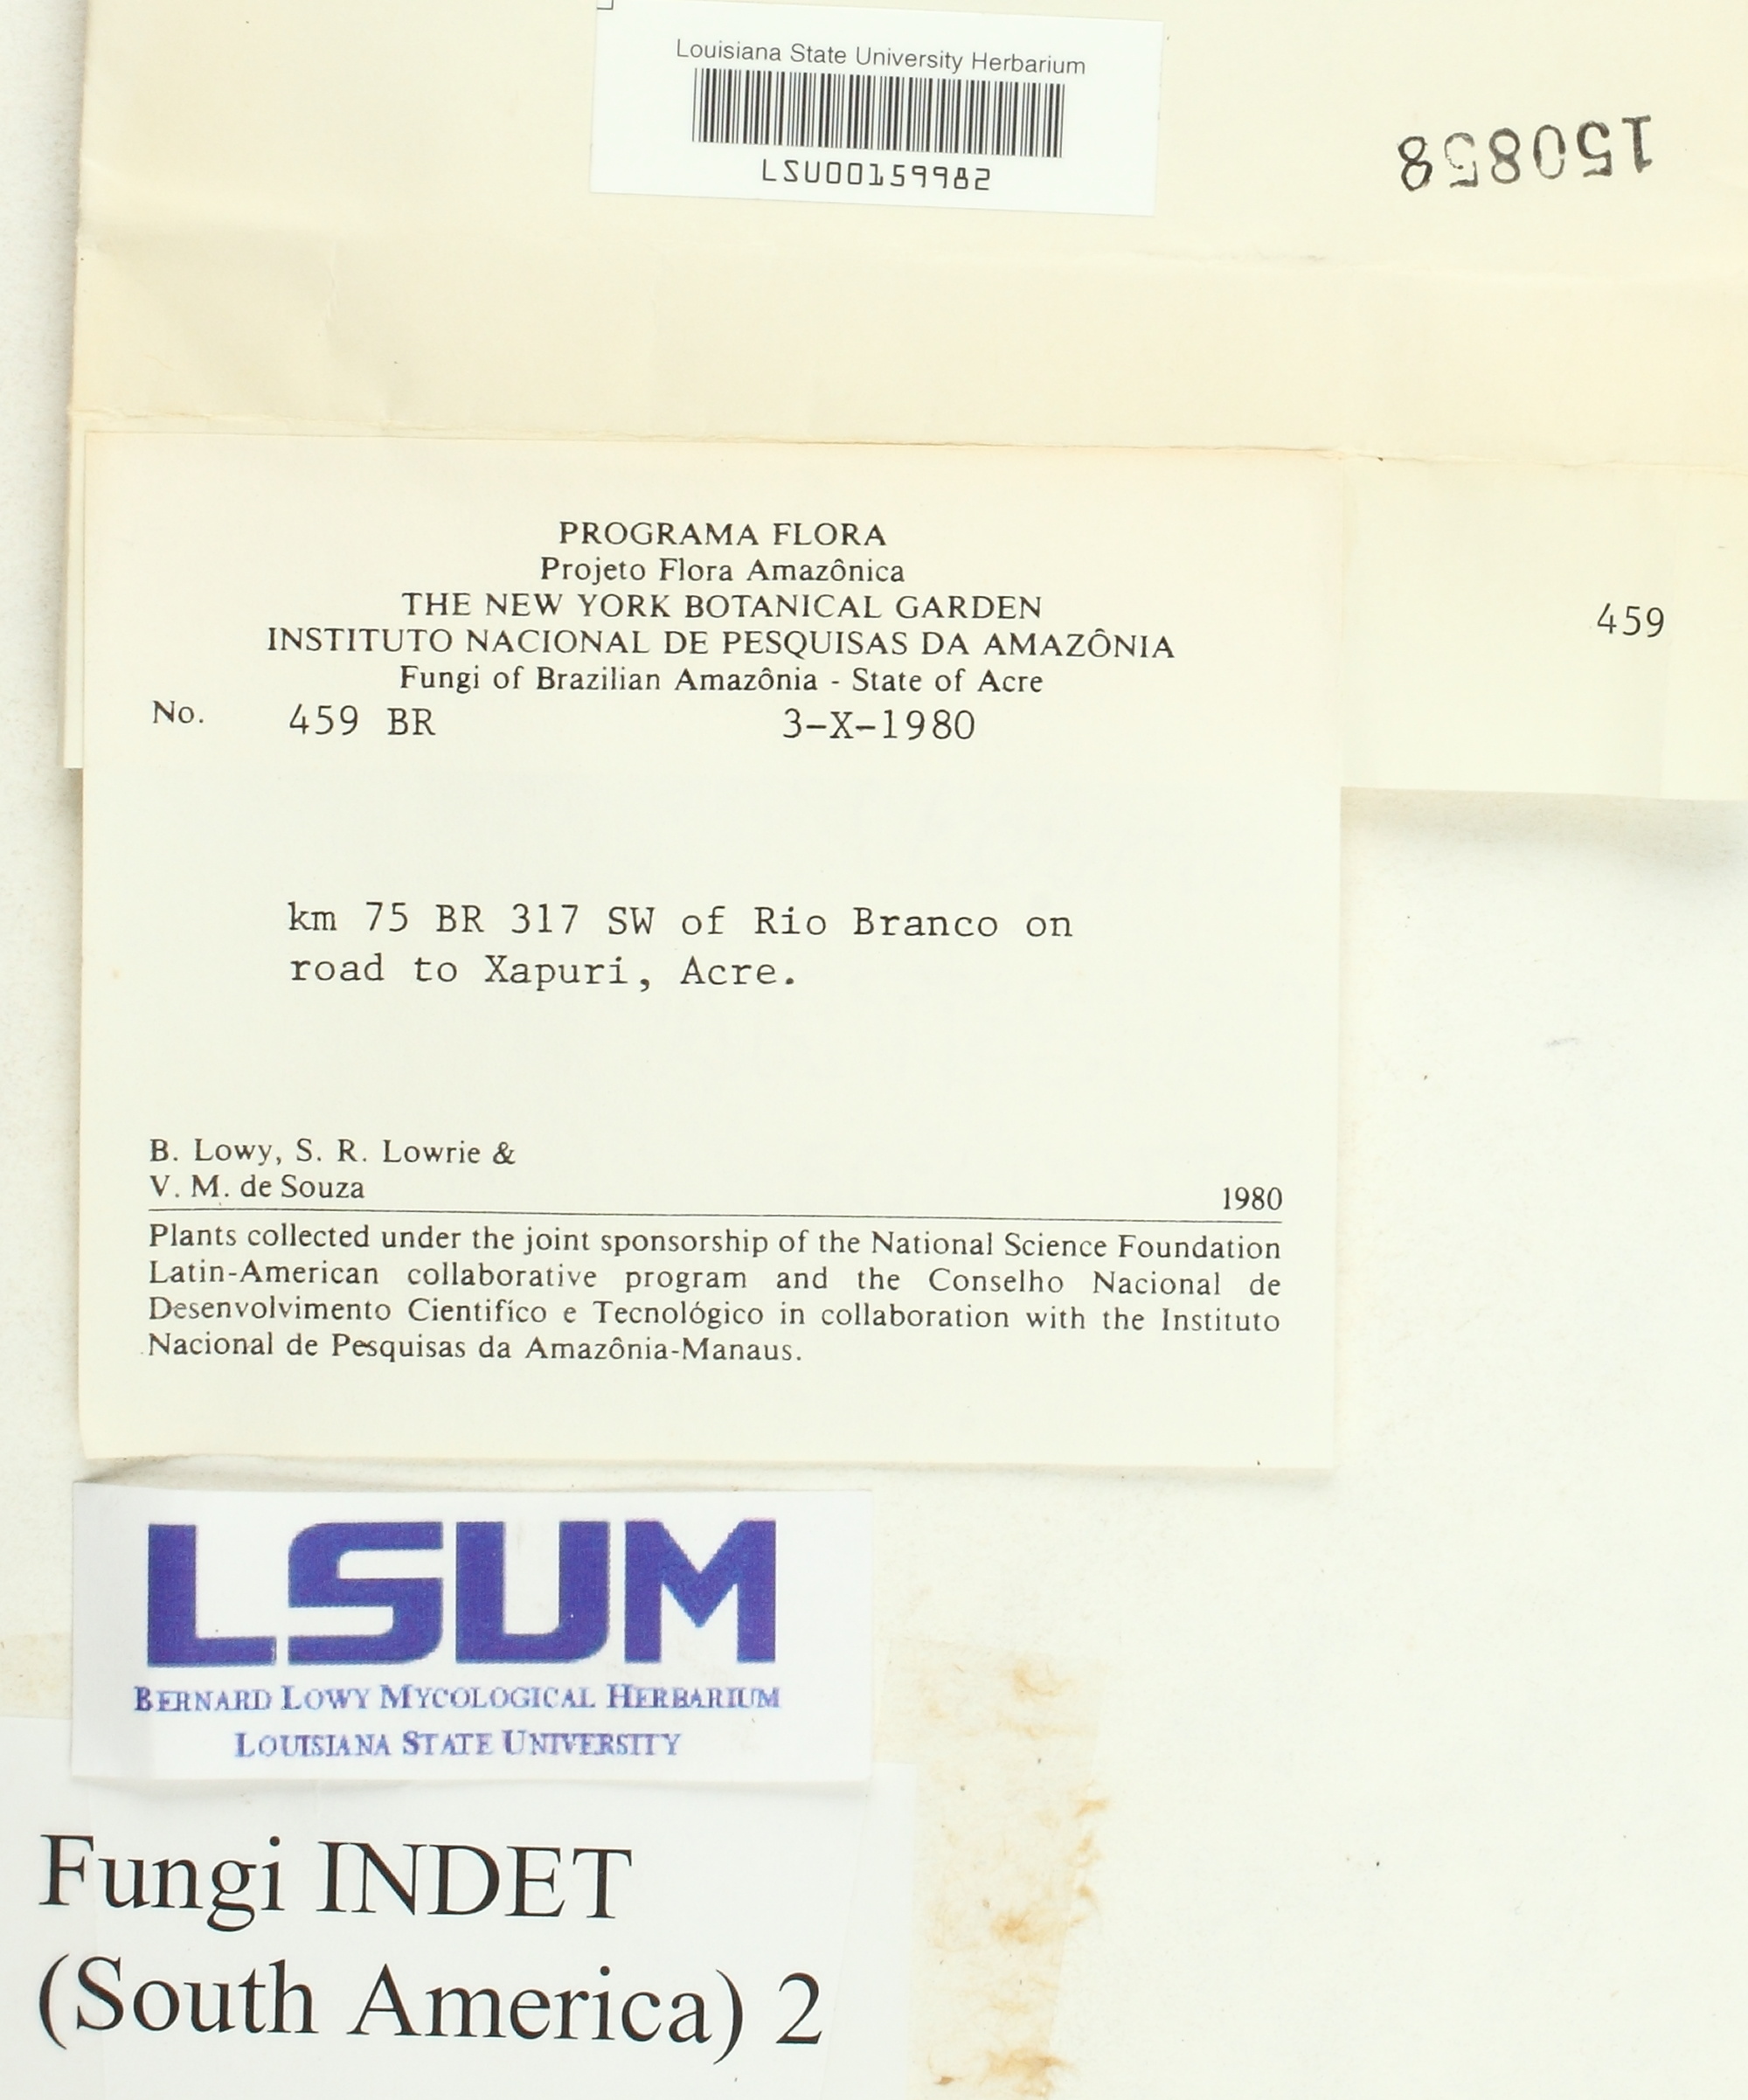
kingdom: Fungi
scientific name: Fungi
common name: Fungi
